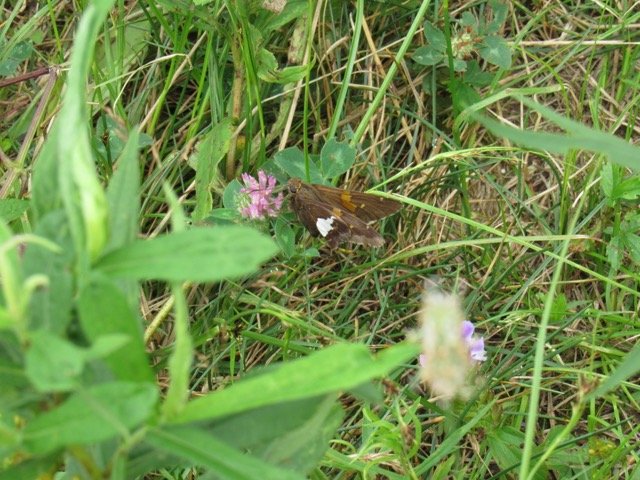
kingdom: Animalia
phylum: Arthropoda
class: Insecta
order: Lepidoptera
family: Hesperiidae
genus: Epargyreus
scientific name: Epargyreus clarus
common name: Silver-spotted Skipper
